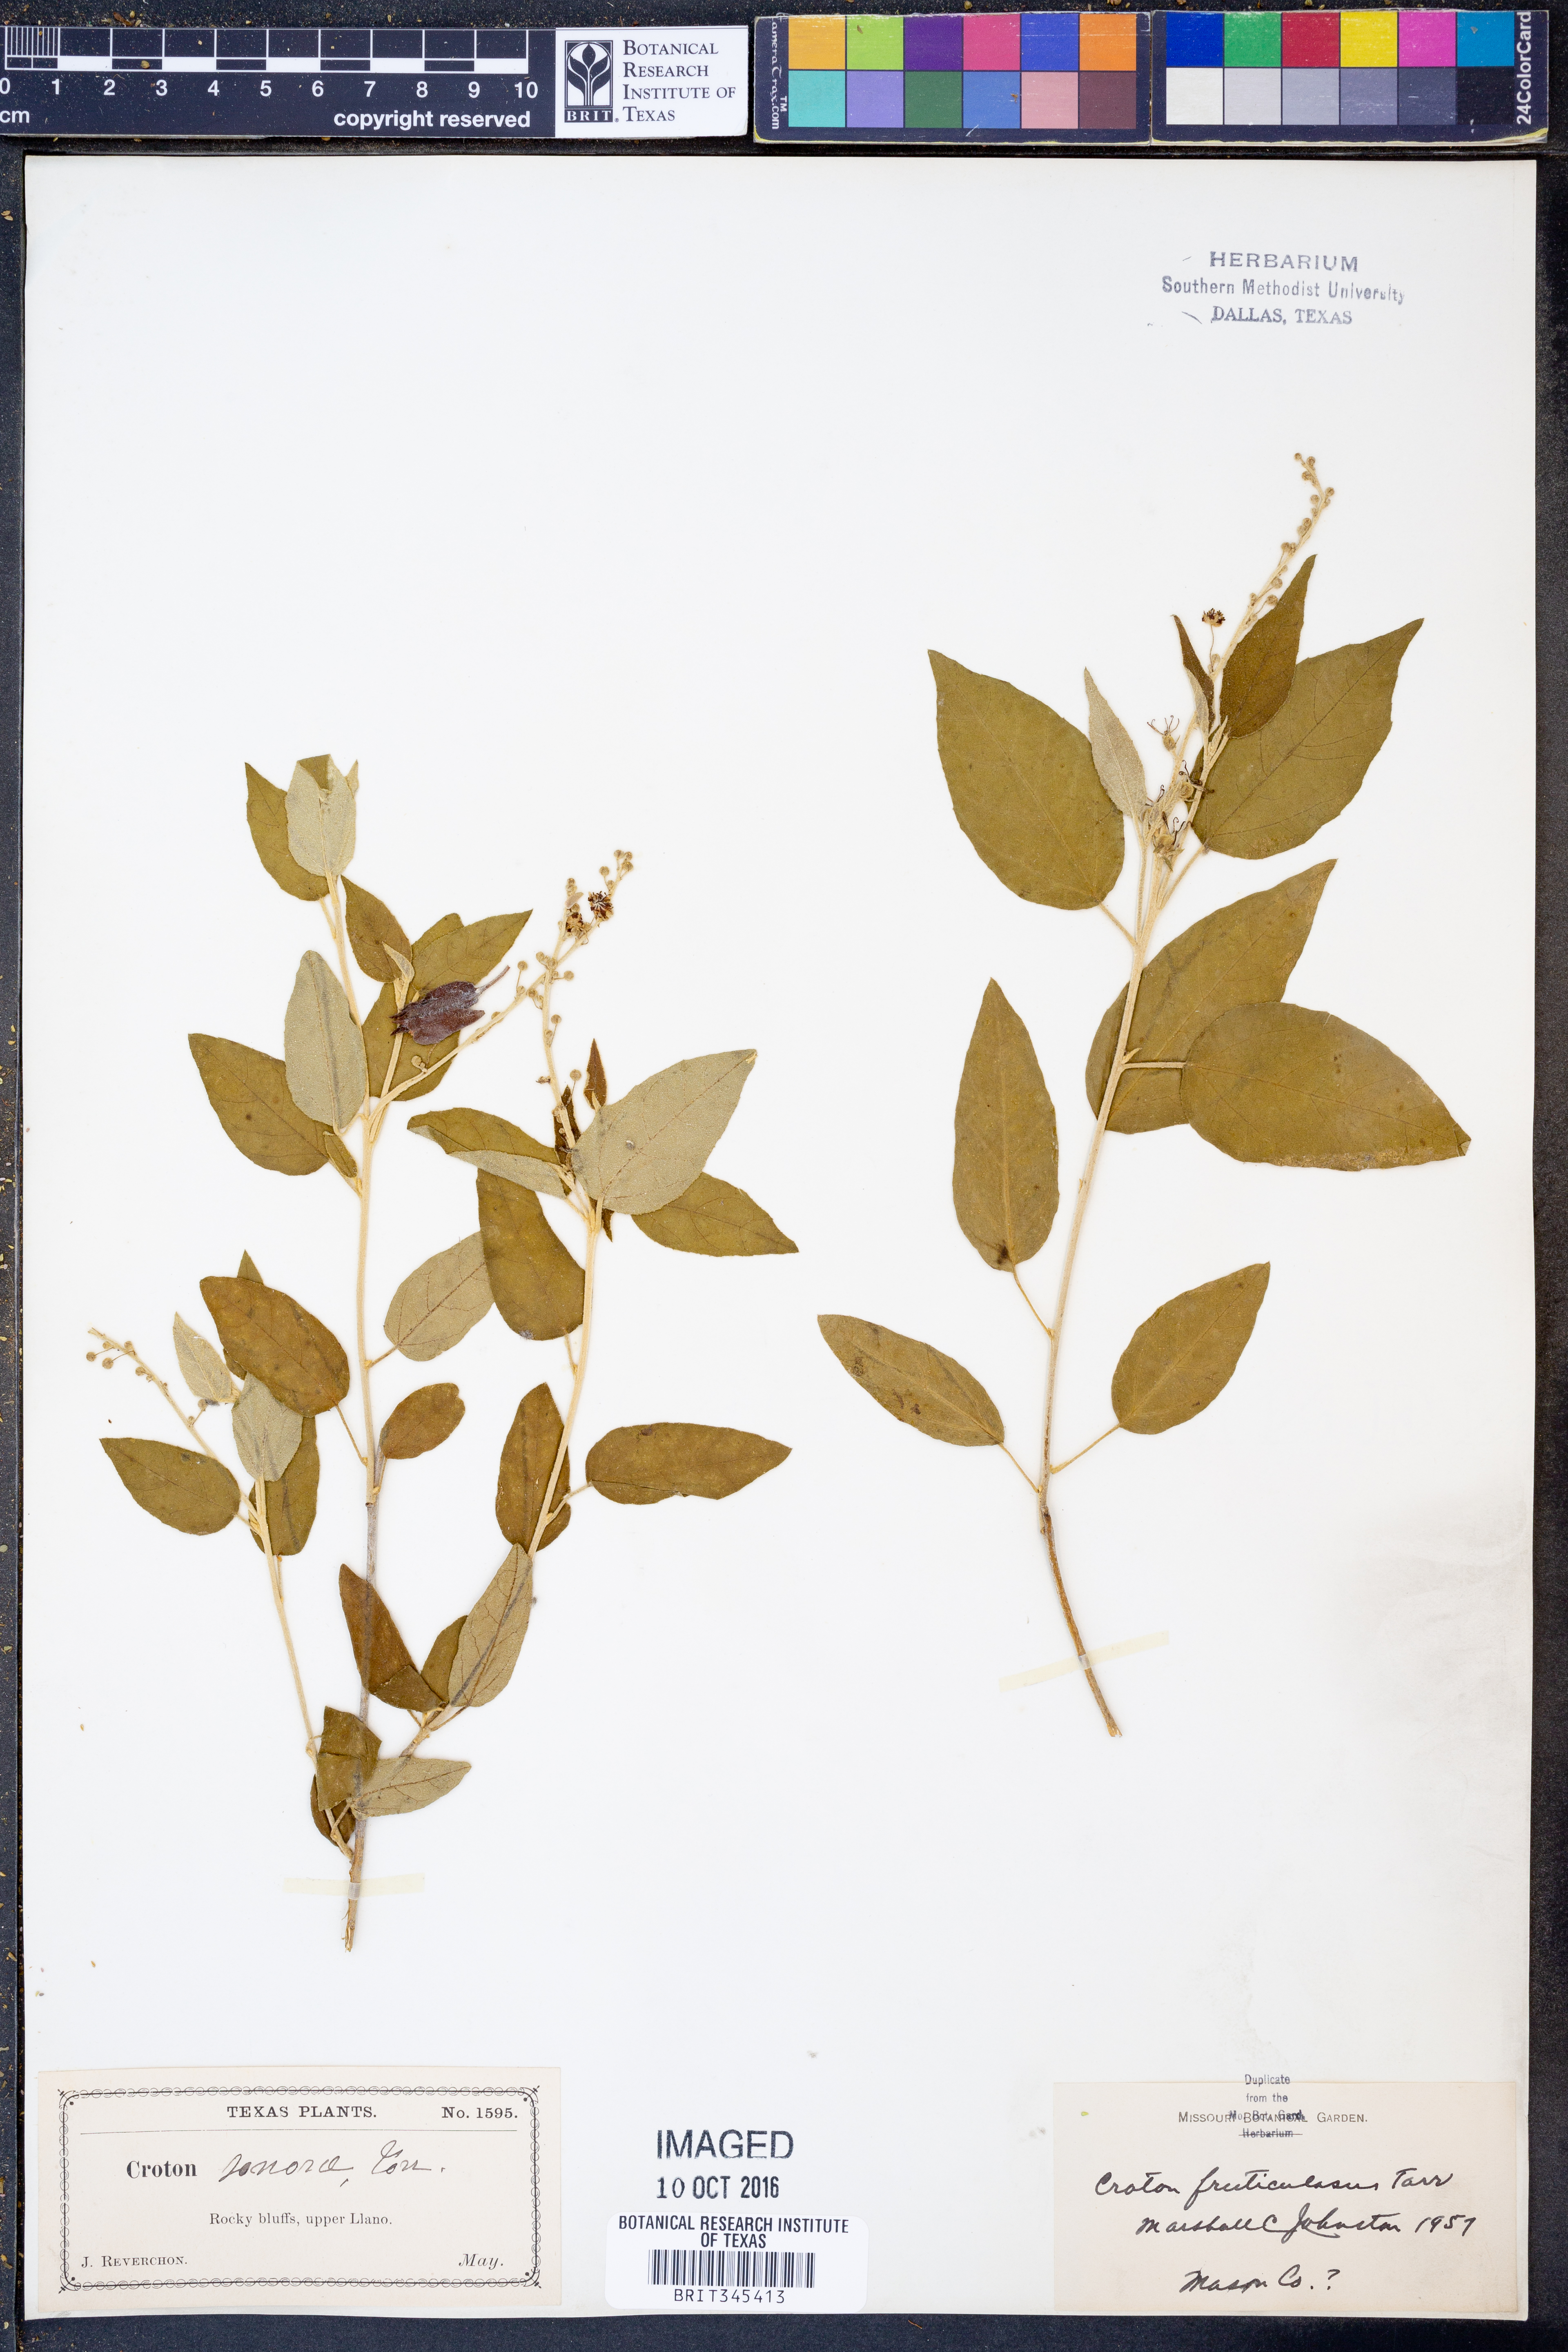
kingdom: Plantae
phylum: Tracheophyta
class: Magnoliopsida
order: Malpighiales
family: Euphorbiaceae
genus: Croton
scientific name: Croton fruticulosus
